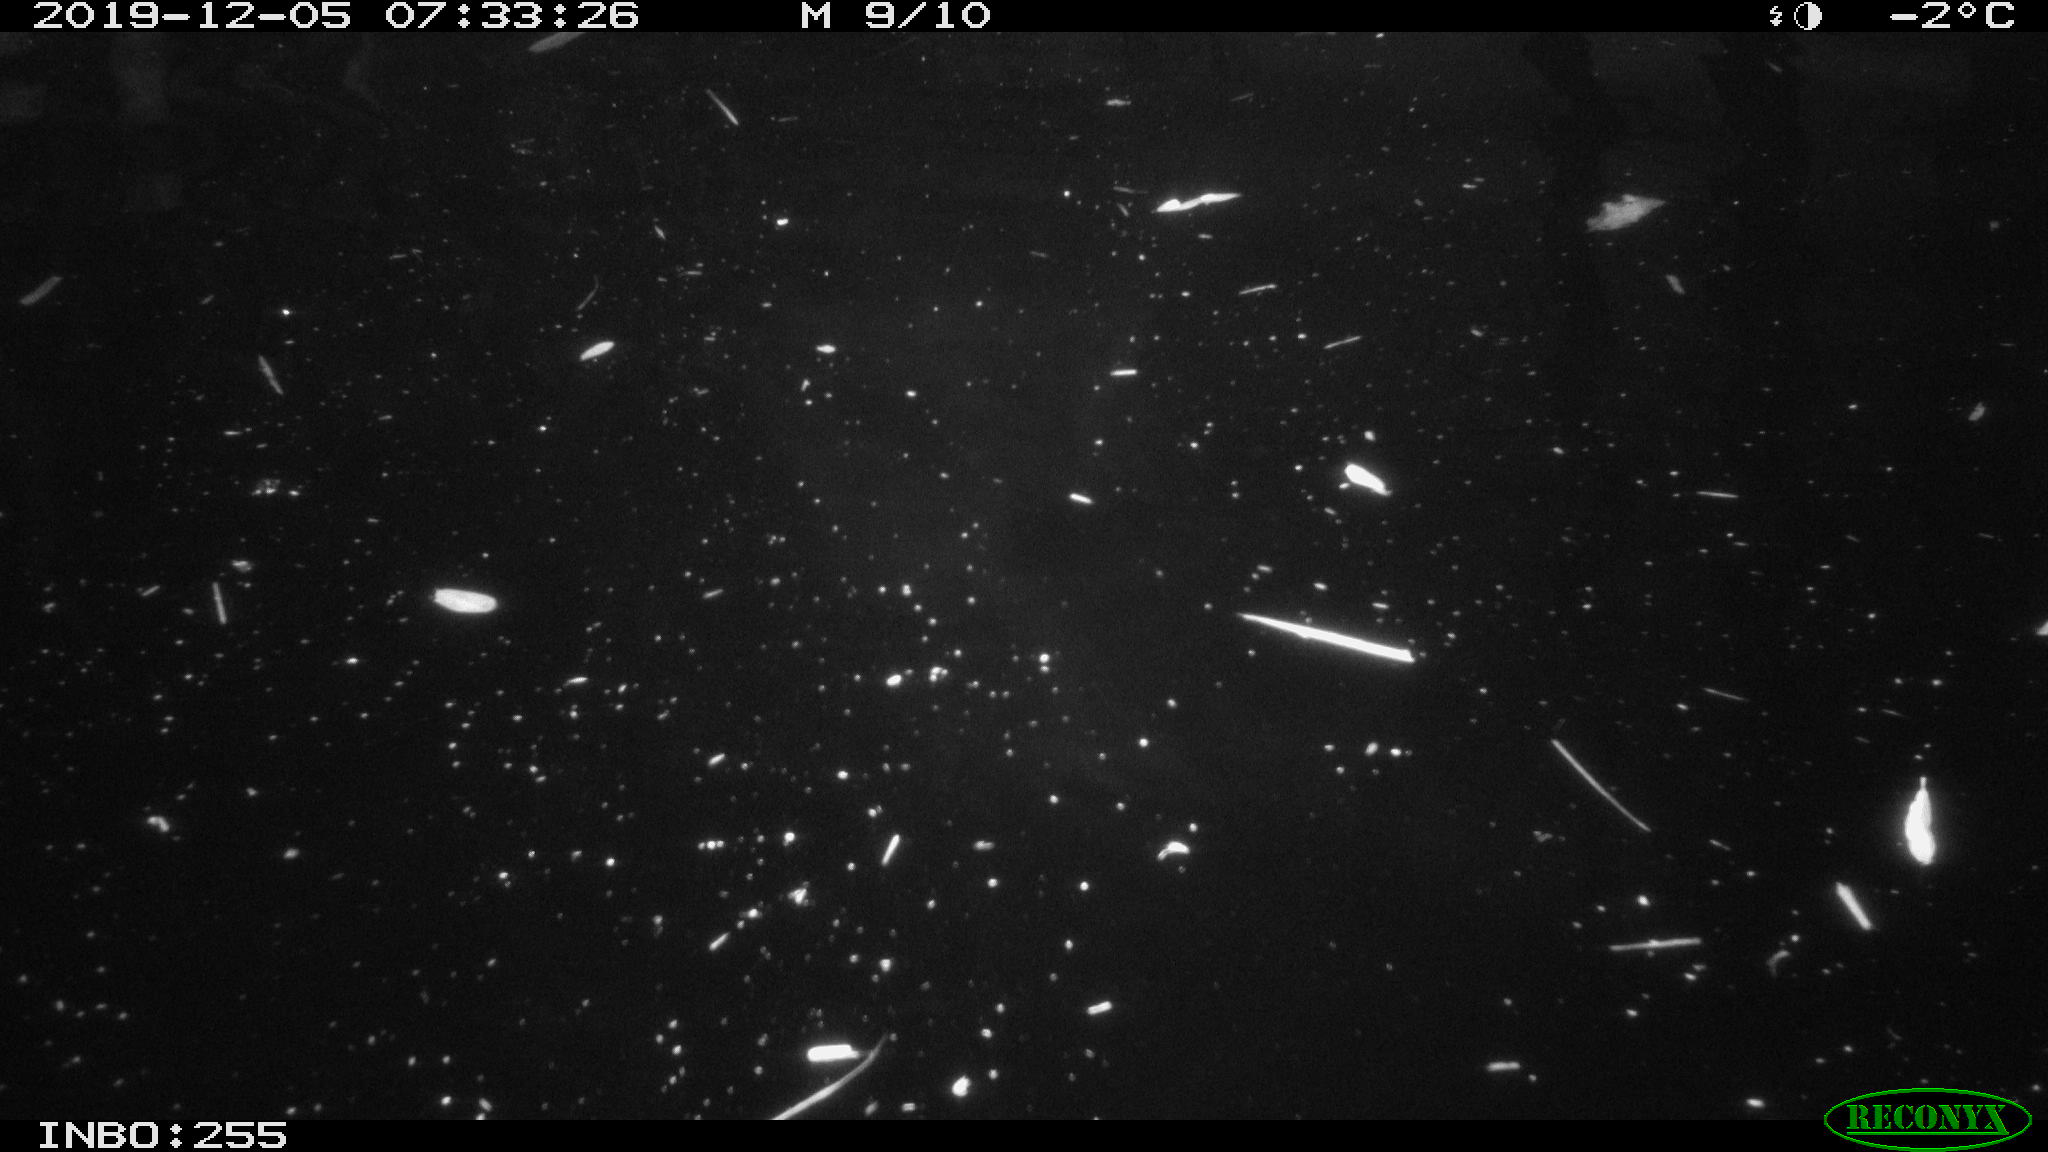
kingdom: Animalia
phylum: Chordata
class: Aves
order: Anseriformes
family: Anatidae
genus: Anas
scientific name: Anas platyrhynchos
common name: Mallard
